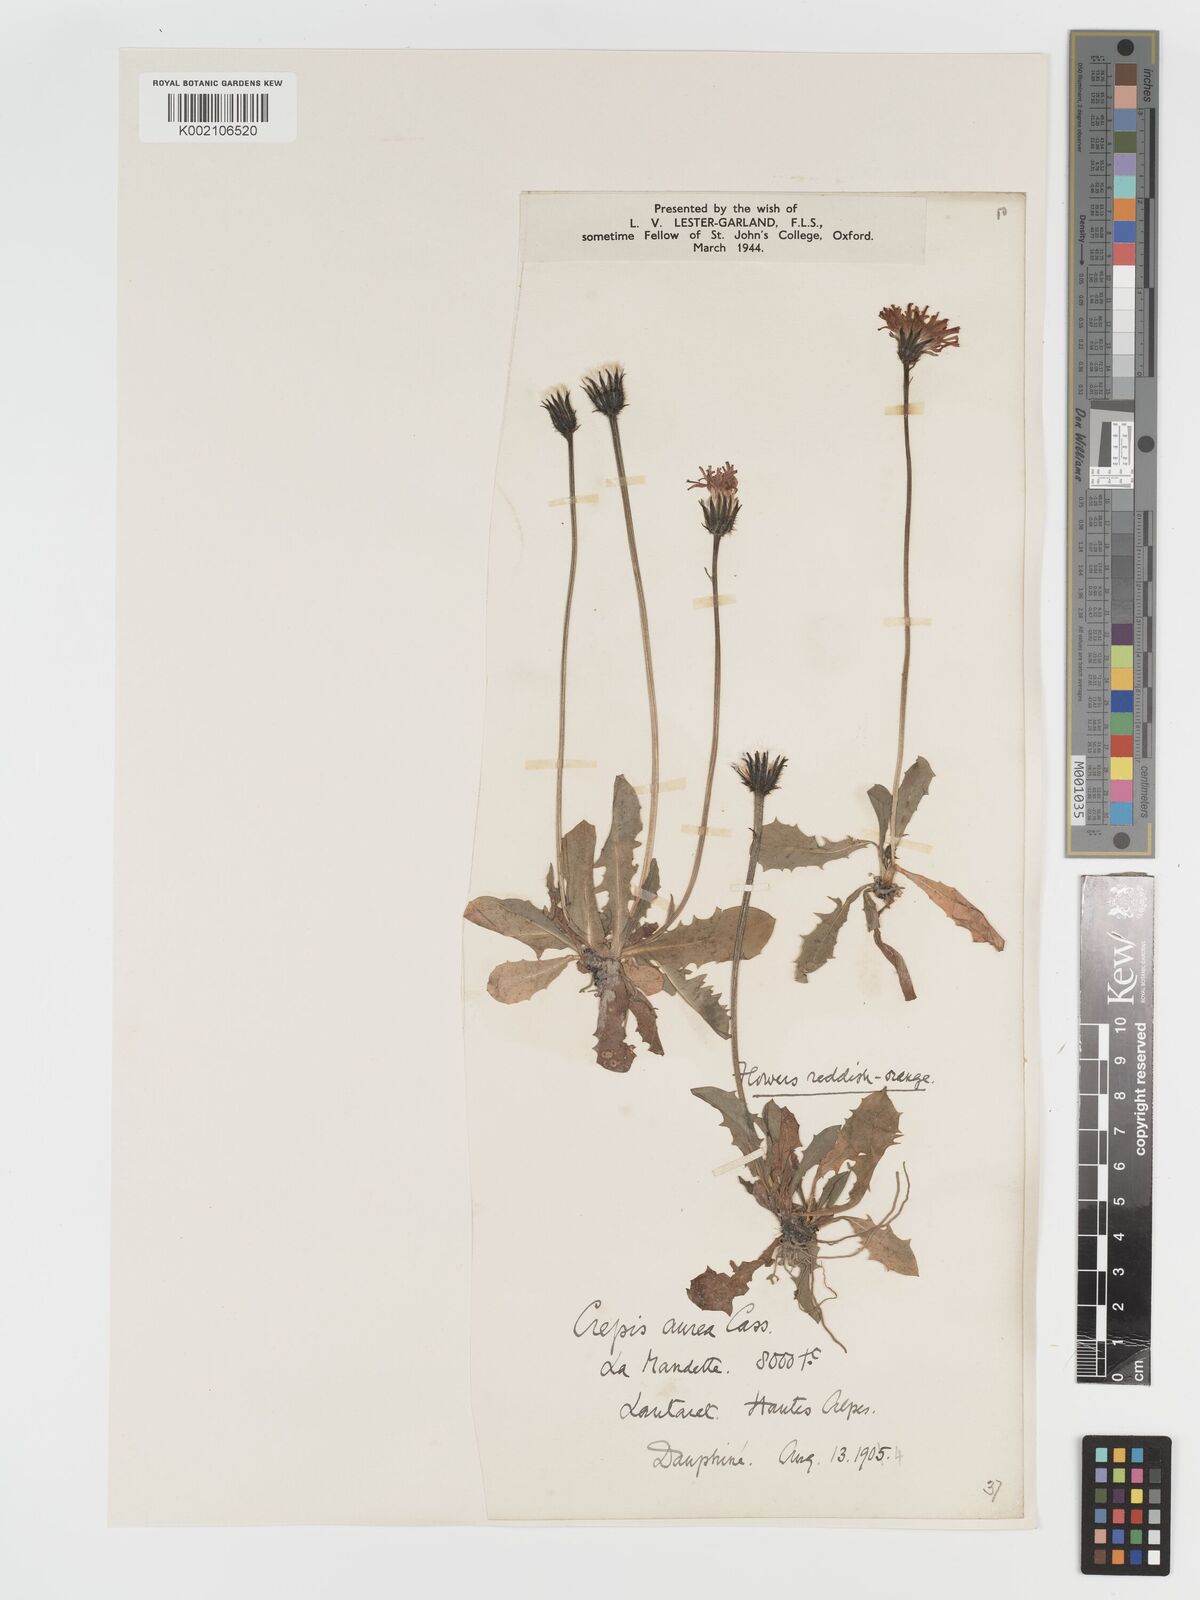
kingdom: Plantae
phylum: Tracheophyta
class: Magnoliopsida
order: Asterales
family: Asteraceae
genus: Crepis
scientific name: Crepis aurea
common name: Golden hawk's-beard
